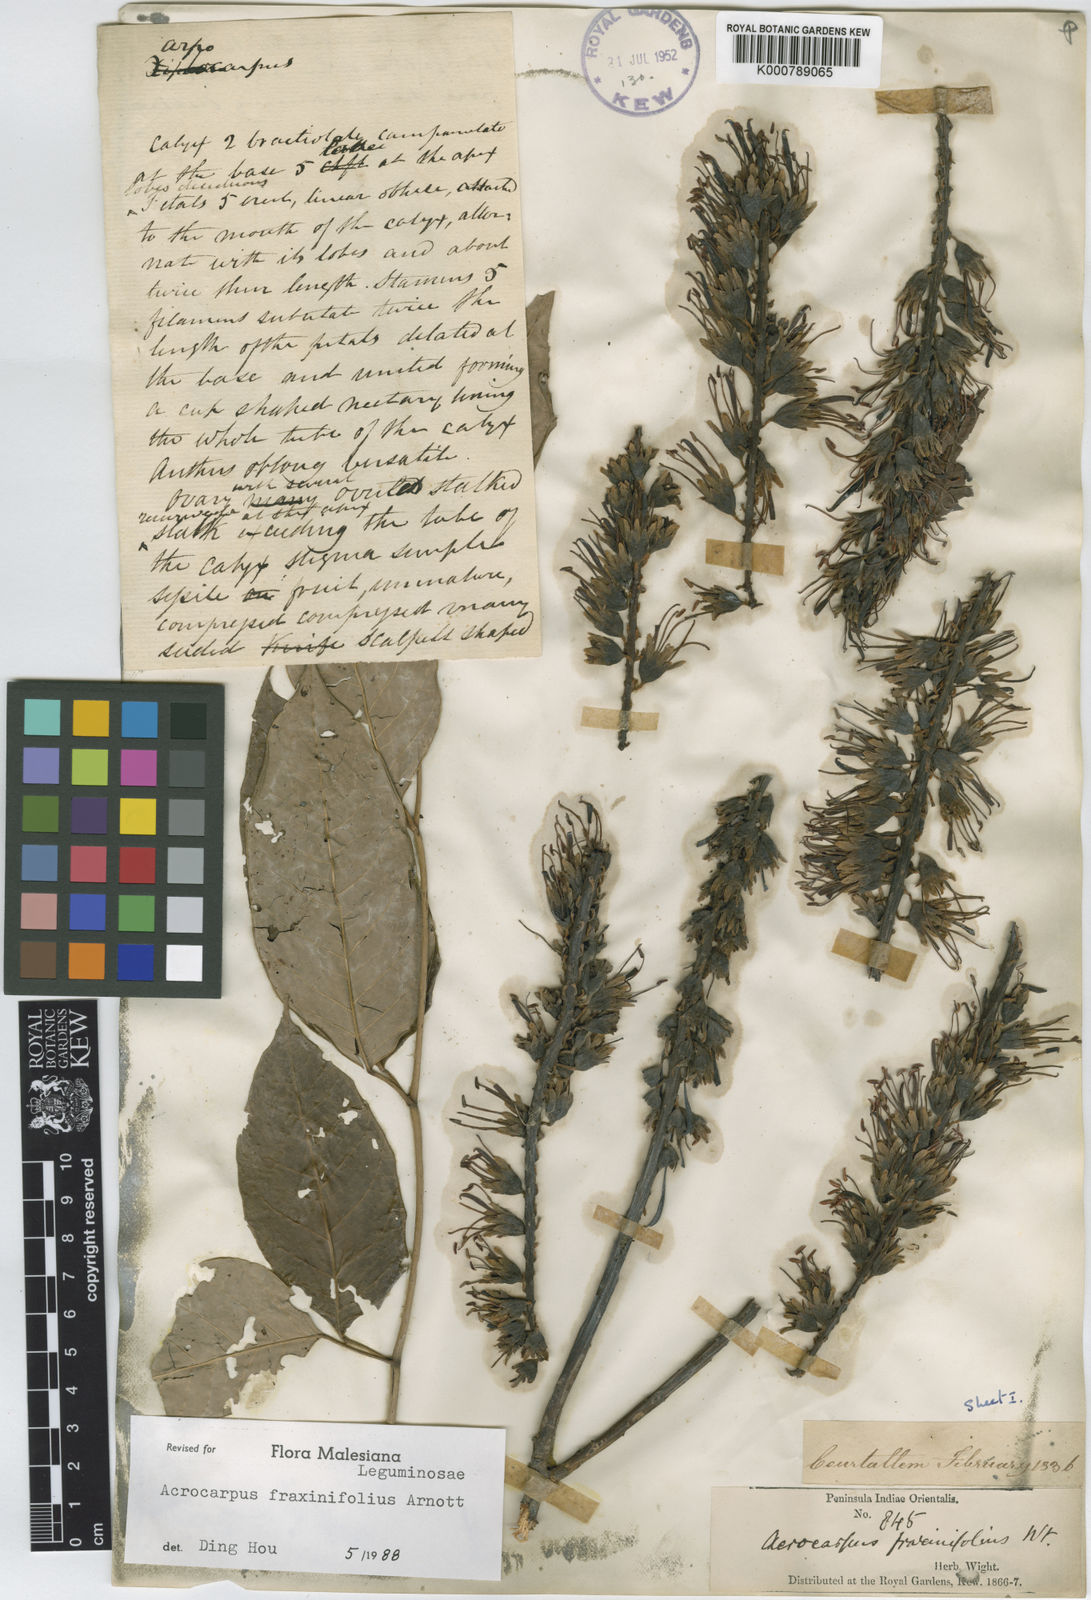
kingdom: Plantae
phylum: Tracheophyta
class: Magnoliopsida
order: Fabales
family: Fabaceae
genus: Acrocarpus
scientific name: Acrocarpus fraxinifolius
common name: Kenya coffeeshade
